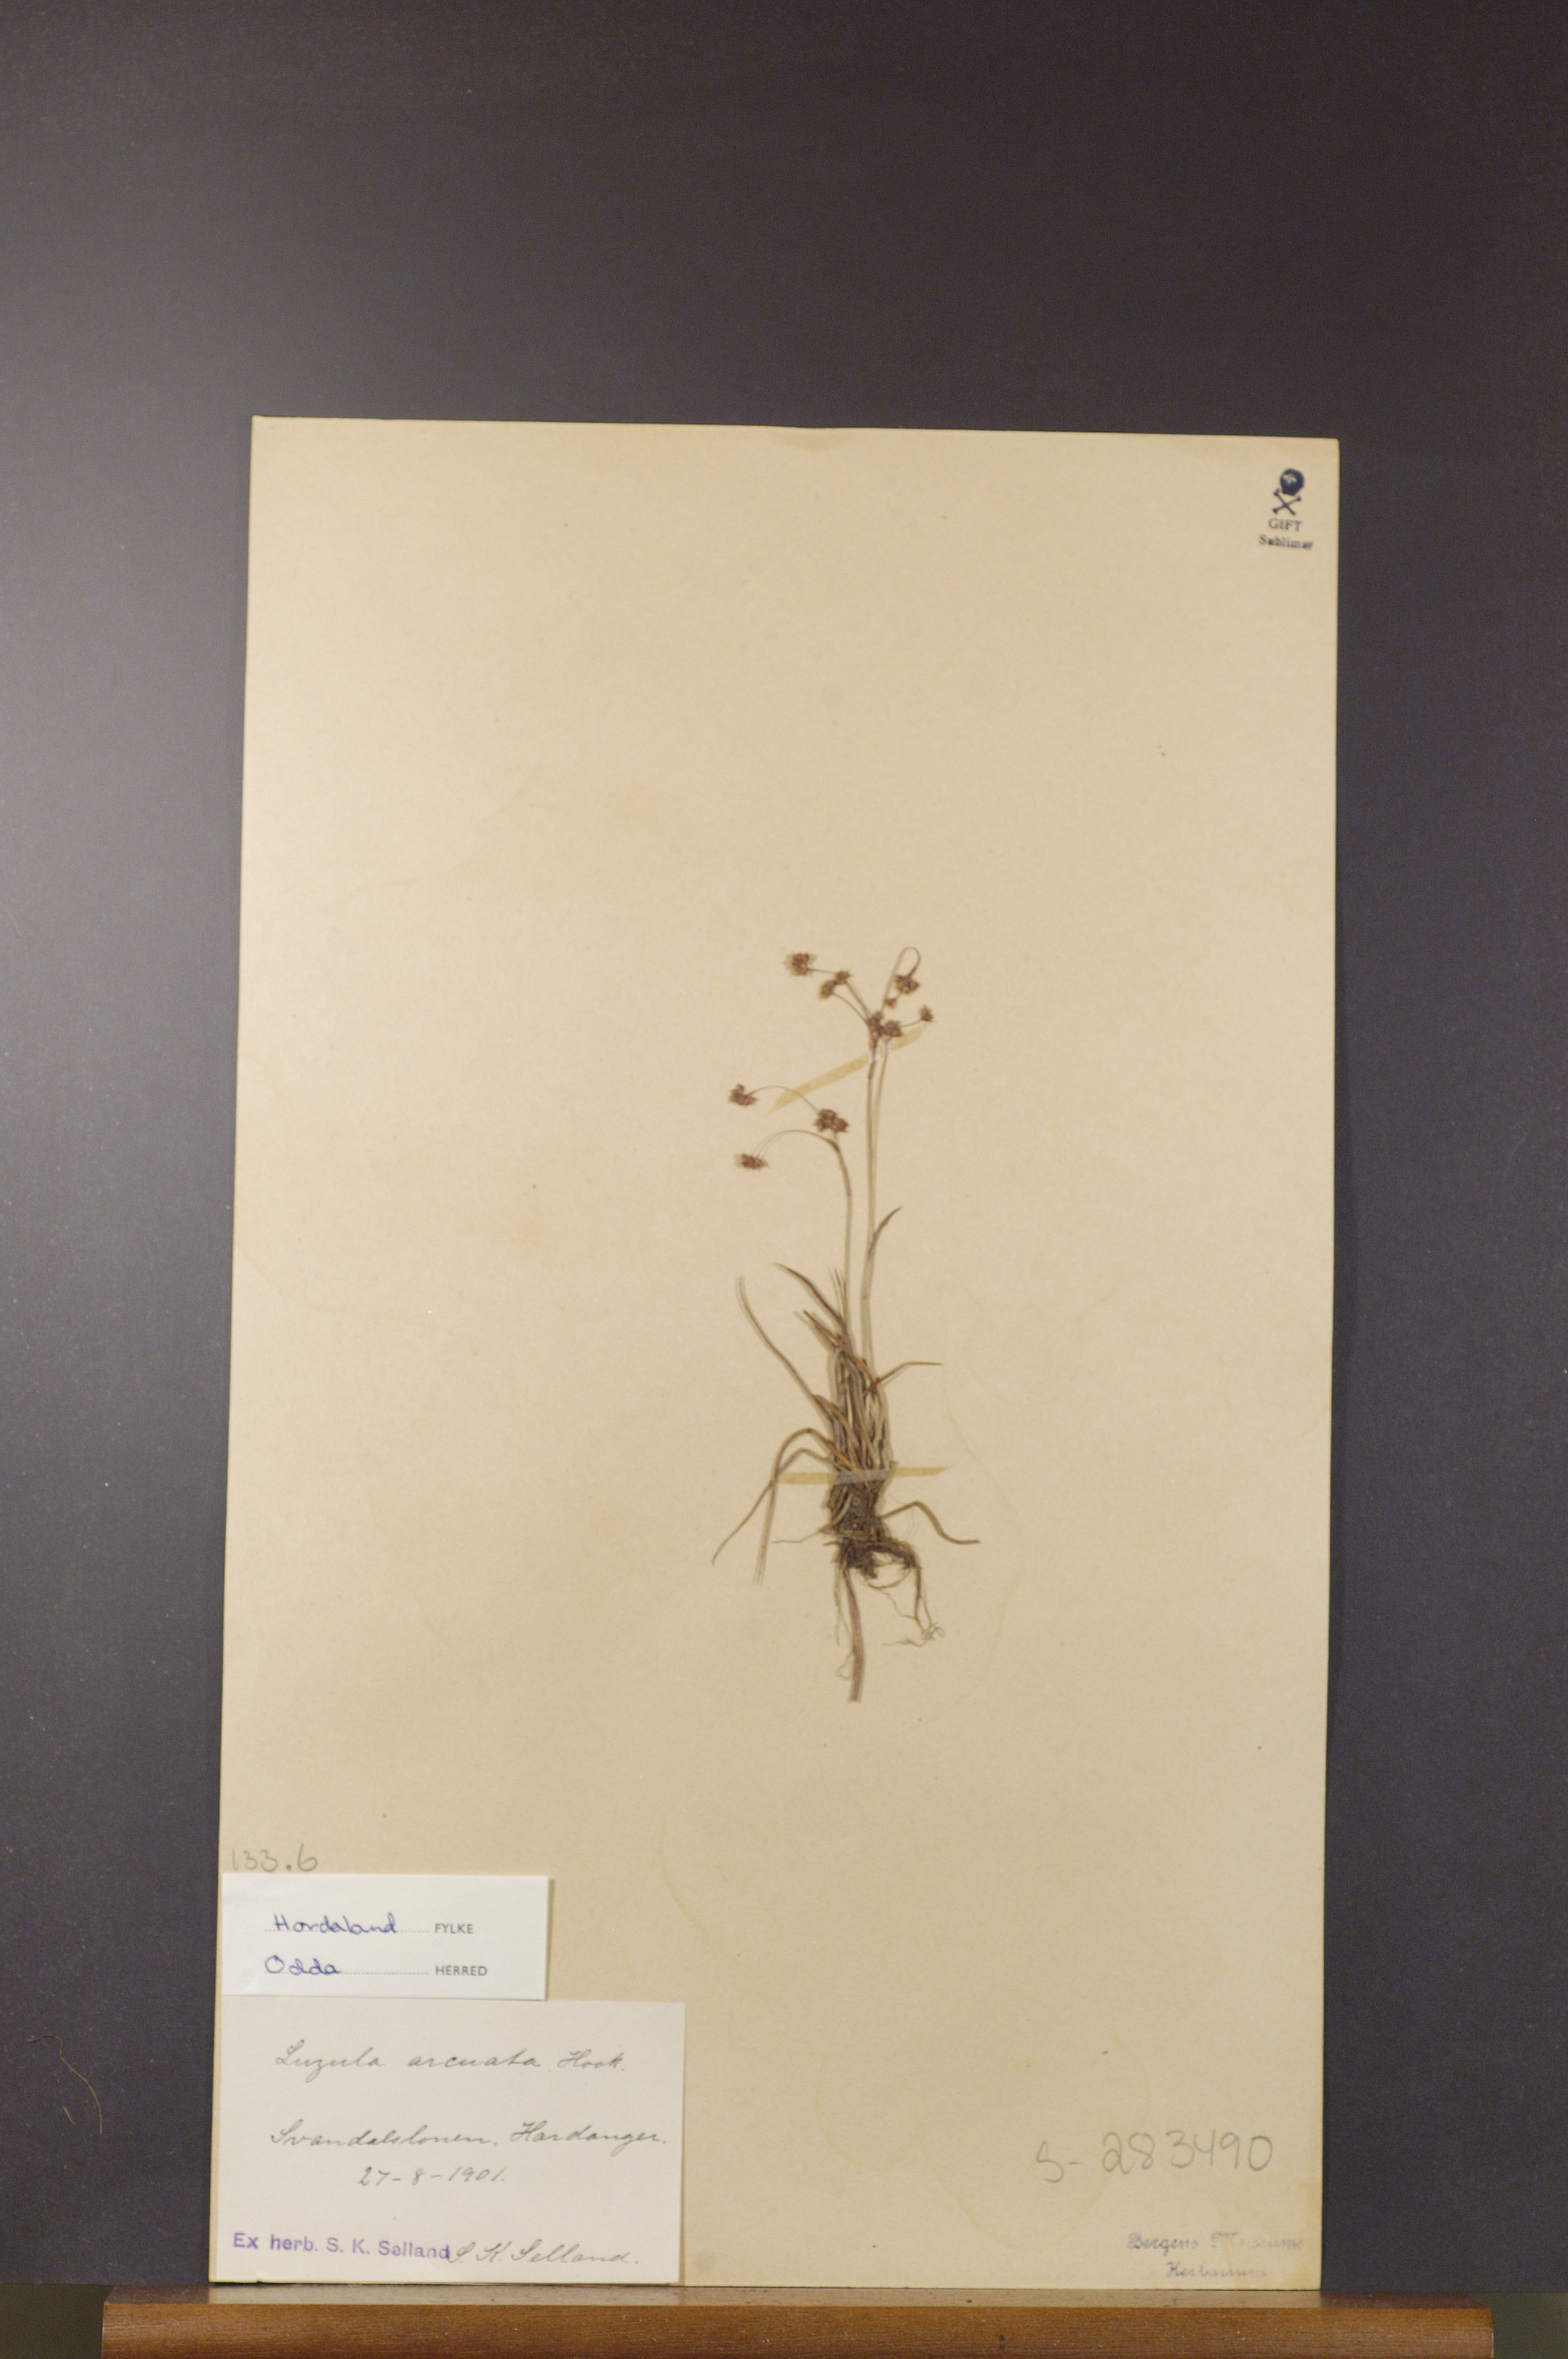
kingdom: Plantae
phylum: Tracheophyta
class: Liliopsida
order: Poales
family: Juncaceae
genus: Luzula
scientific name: Luzula arcuata
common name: Curved wood-rush
